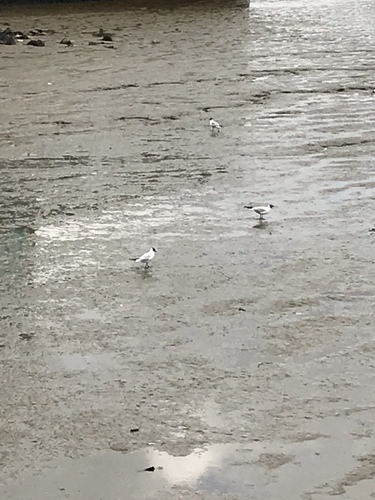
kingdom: Animalia
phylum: Chordata
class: Aves
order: Charadriiformes
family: Laridae
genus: Chroicocephalus
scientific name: Chroicocephalus ridibundus
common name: Black-headed gull
